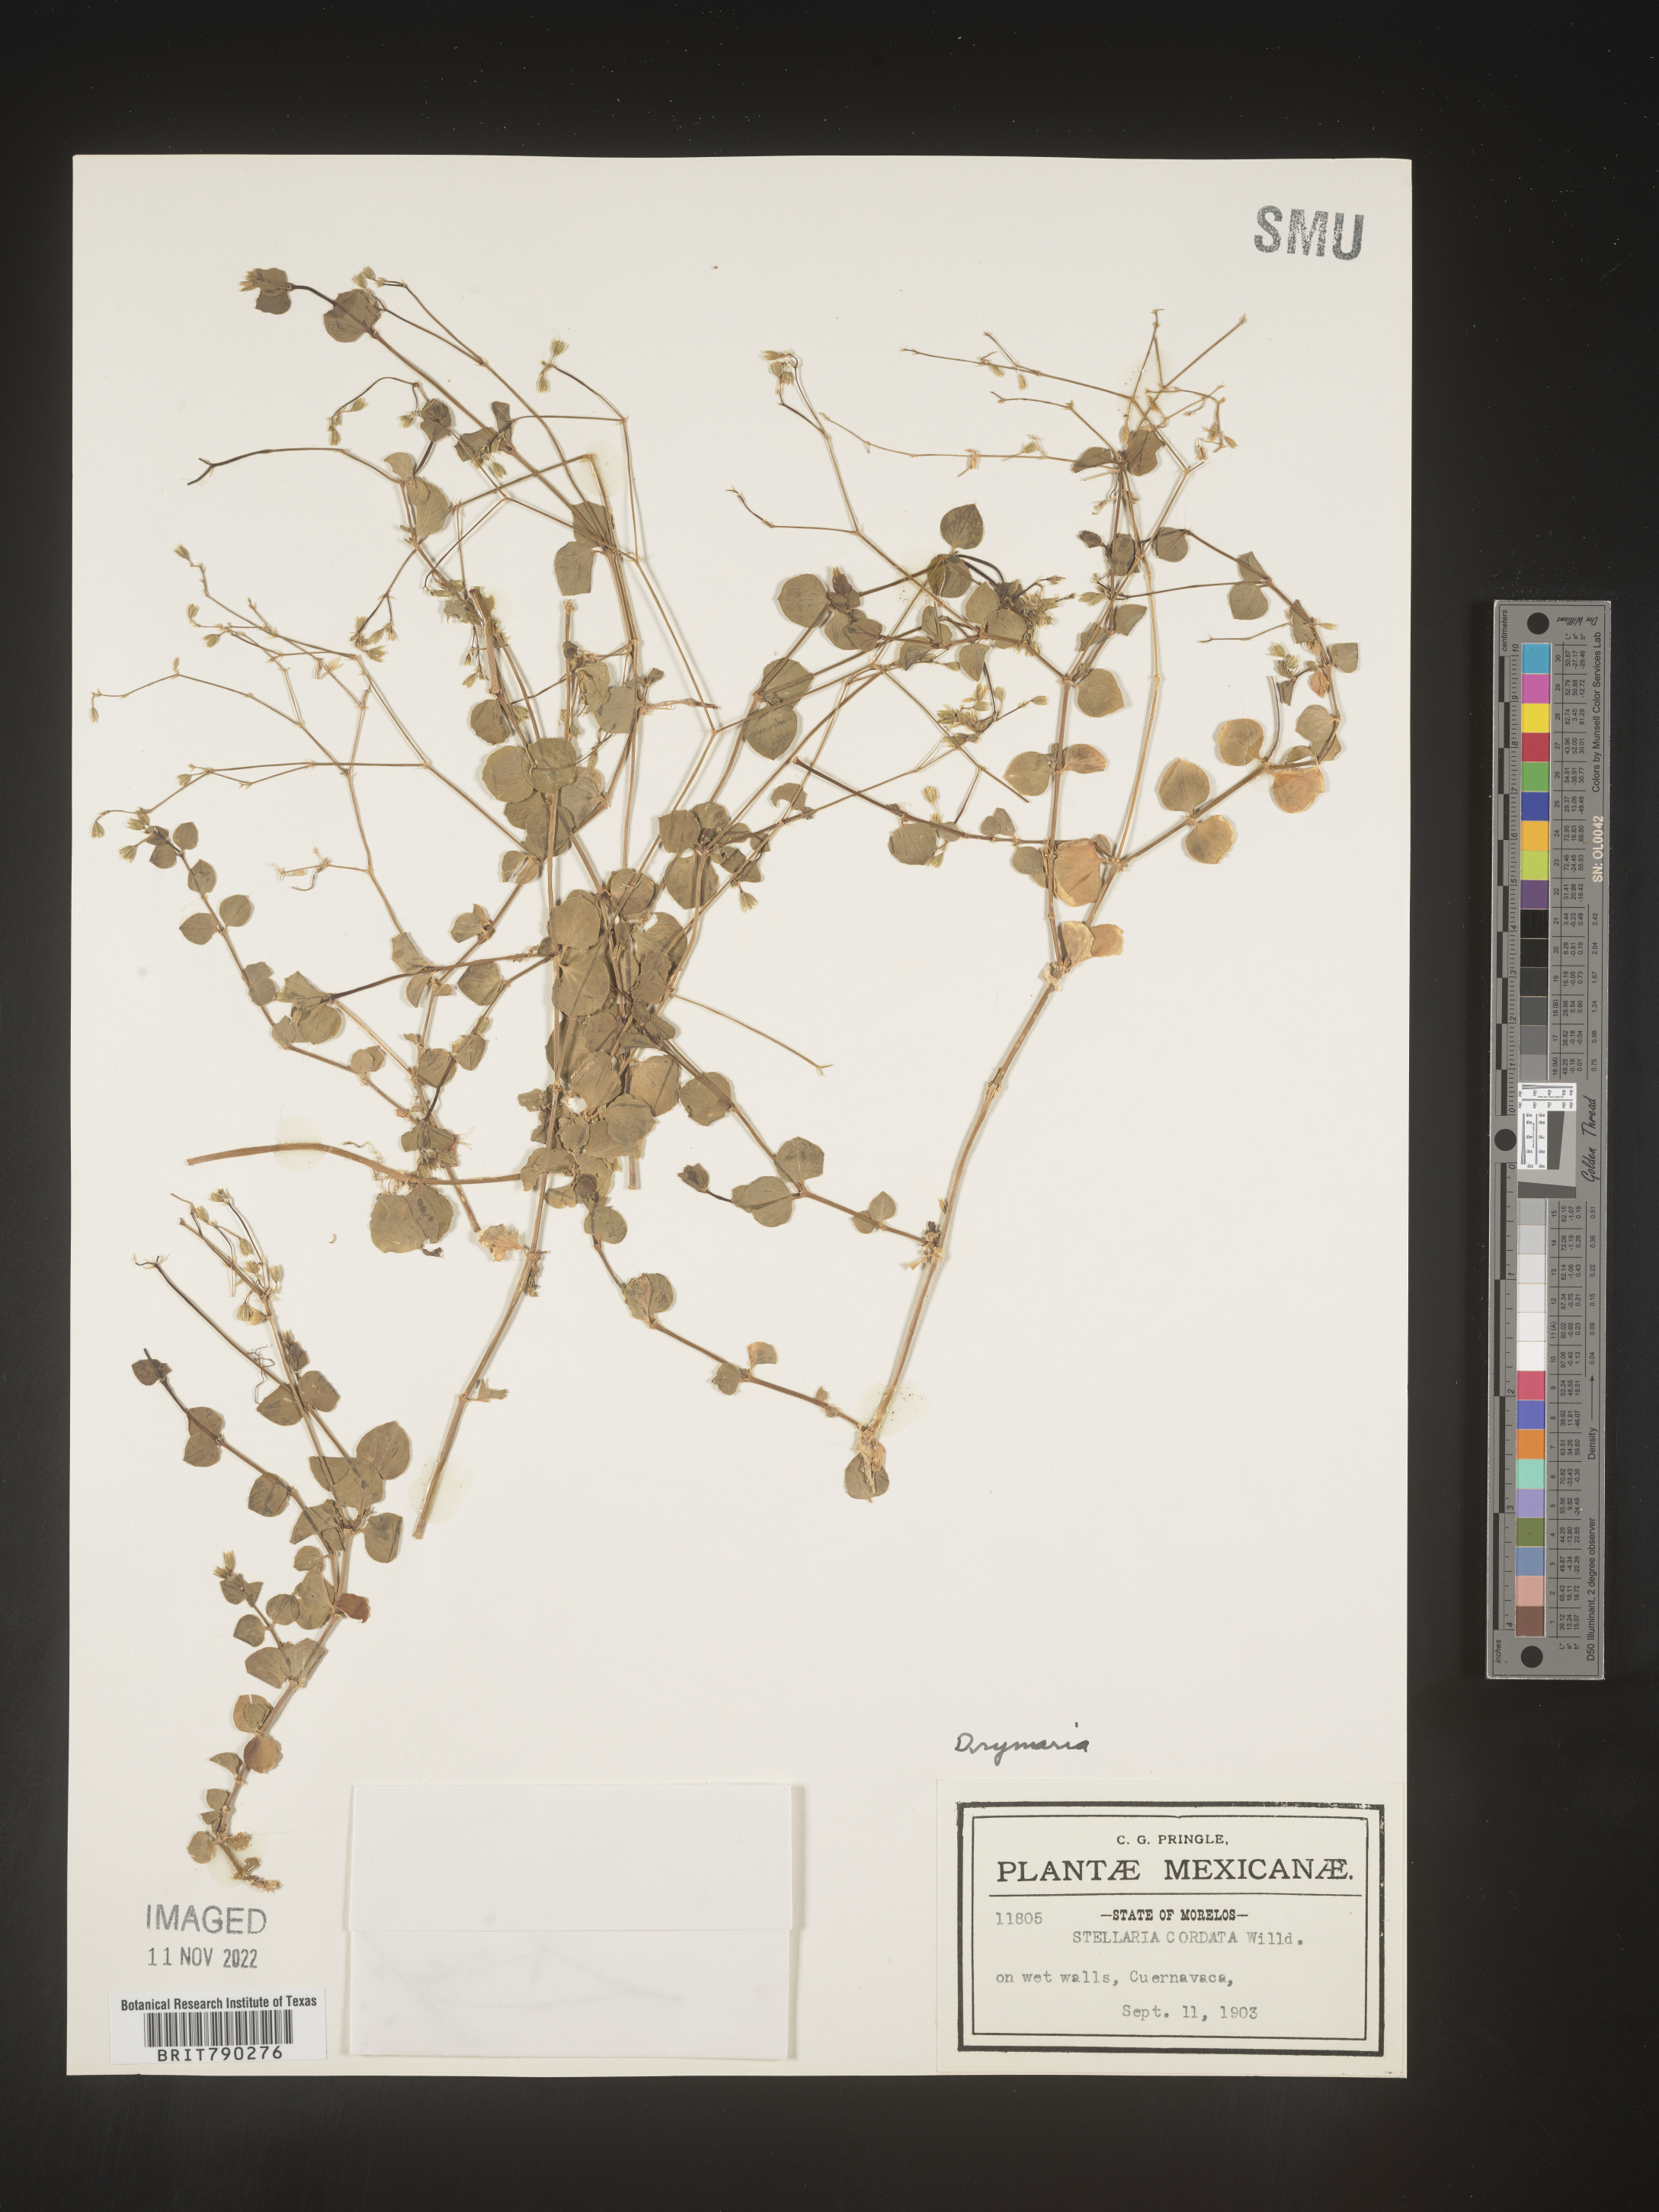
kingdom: Plantae
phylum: Tracheophyta
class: Magnoliopsida
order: Caryophyllales
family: Caryophyllaceae
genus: Drymaria
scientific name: Drymaria
